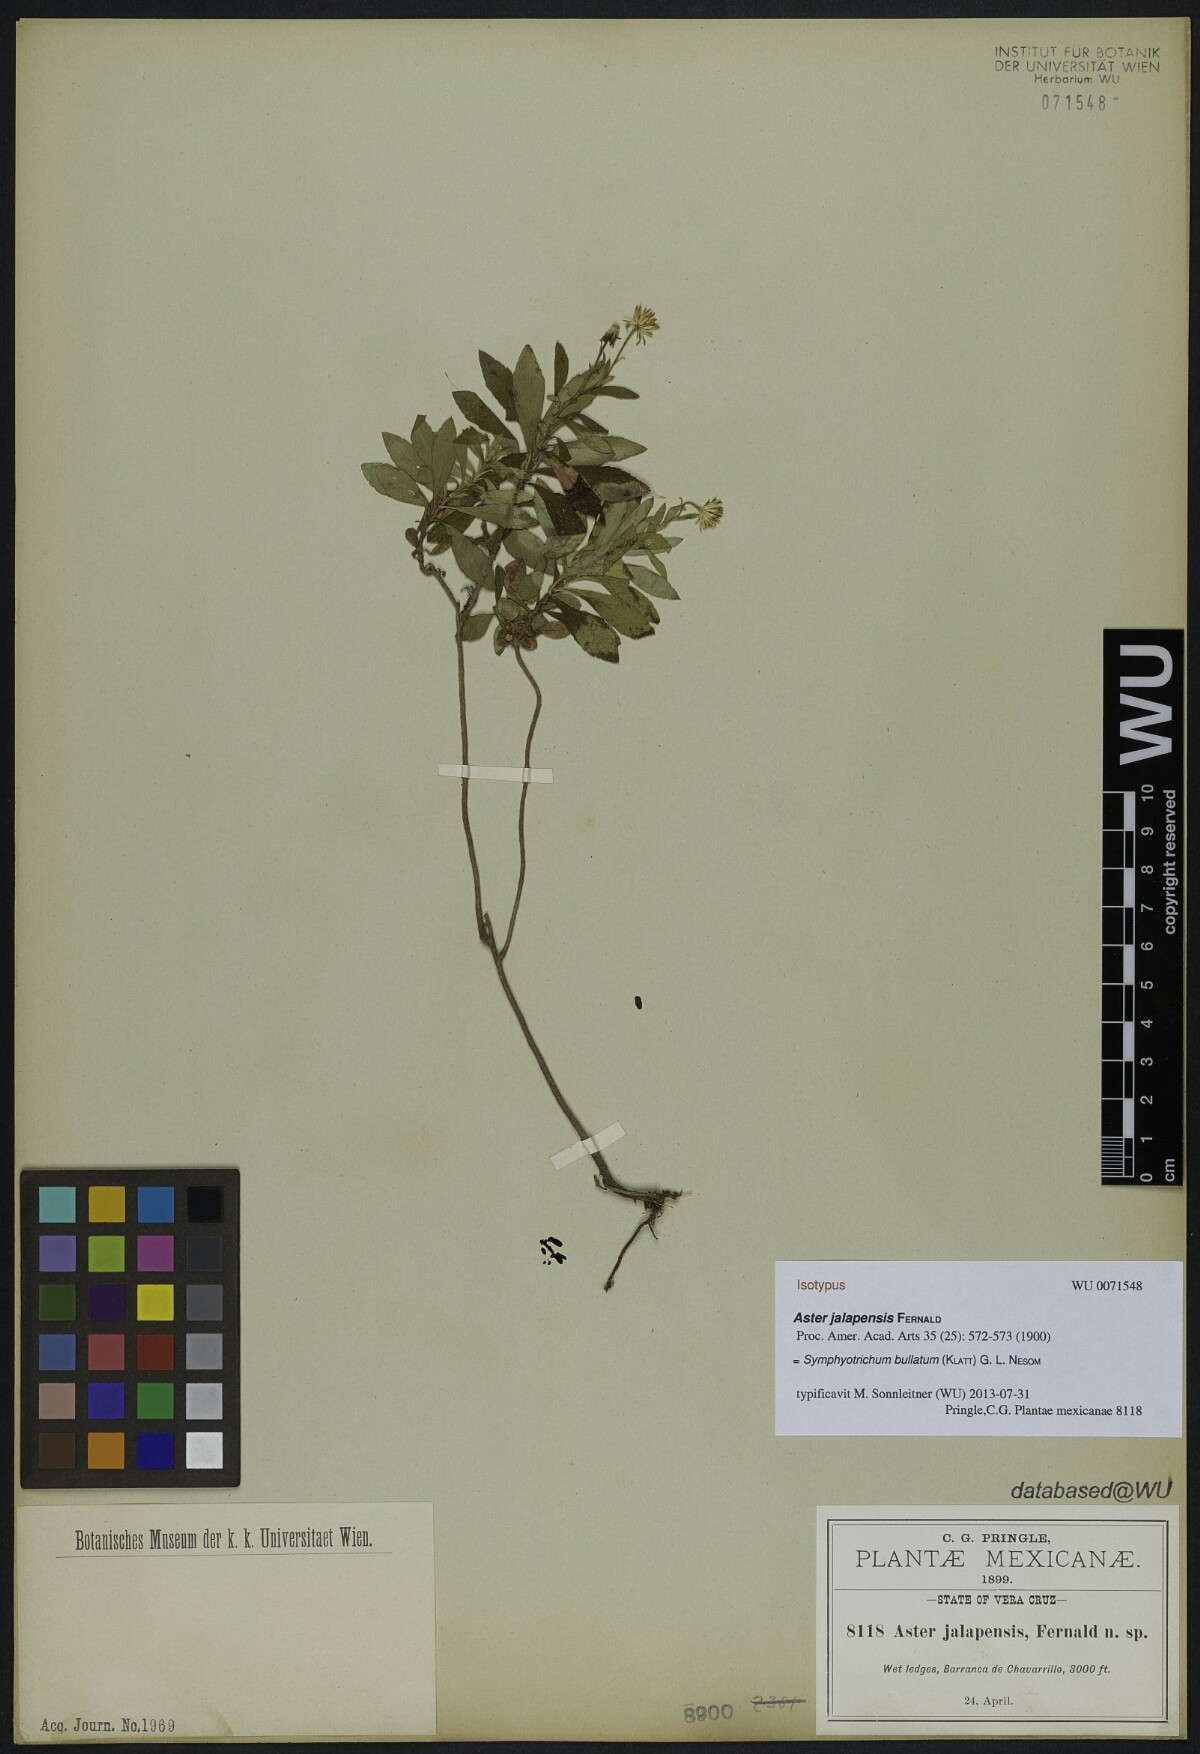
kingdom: Plantae
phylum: Tracheophyta
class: Magnoliopsida
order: Asterales
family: Asteraceae
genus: Symphyotrichum
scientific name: Symphyotrichum bullatum
